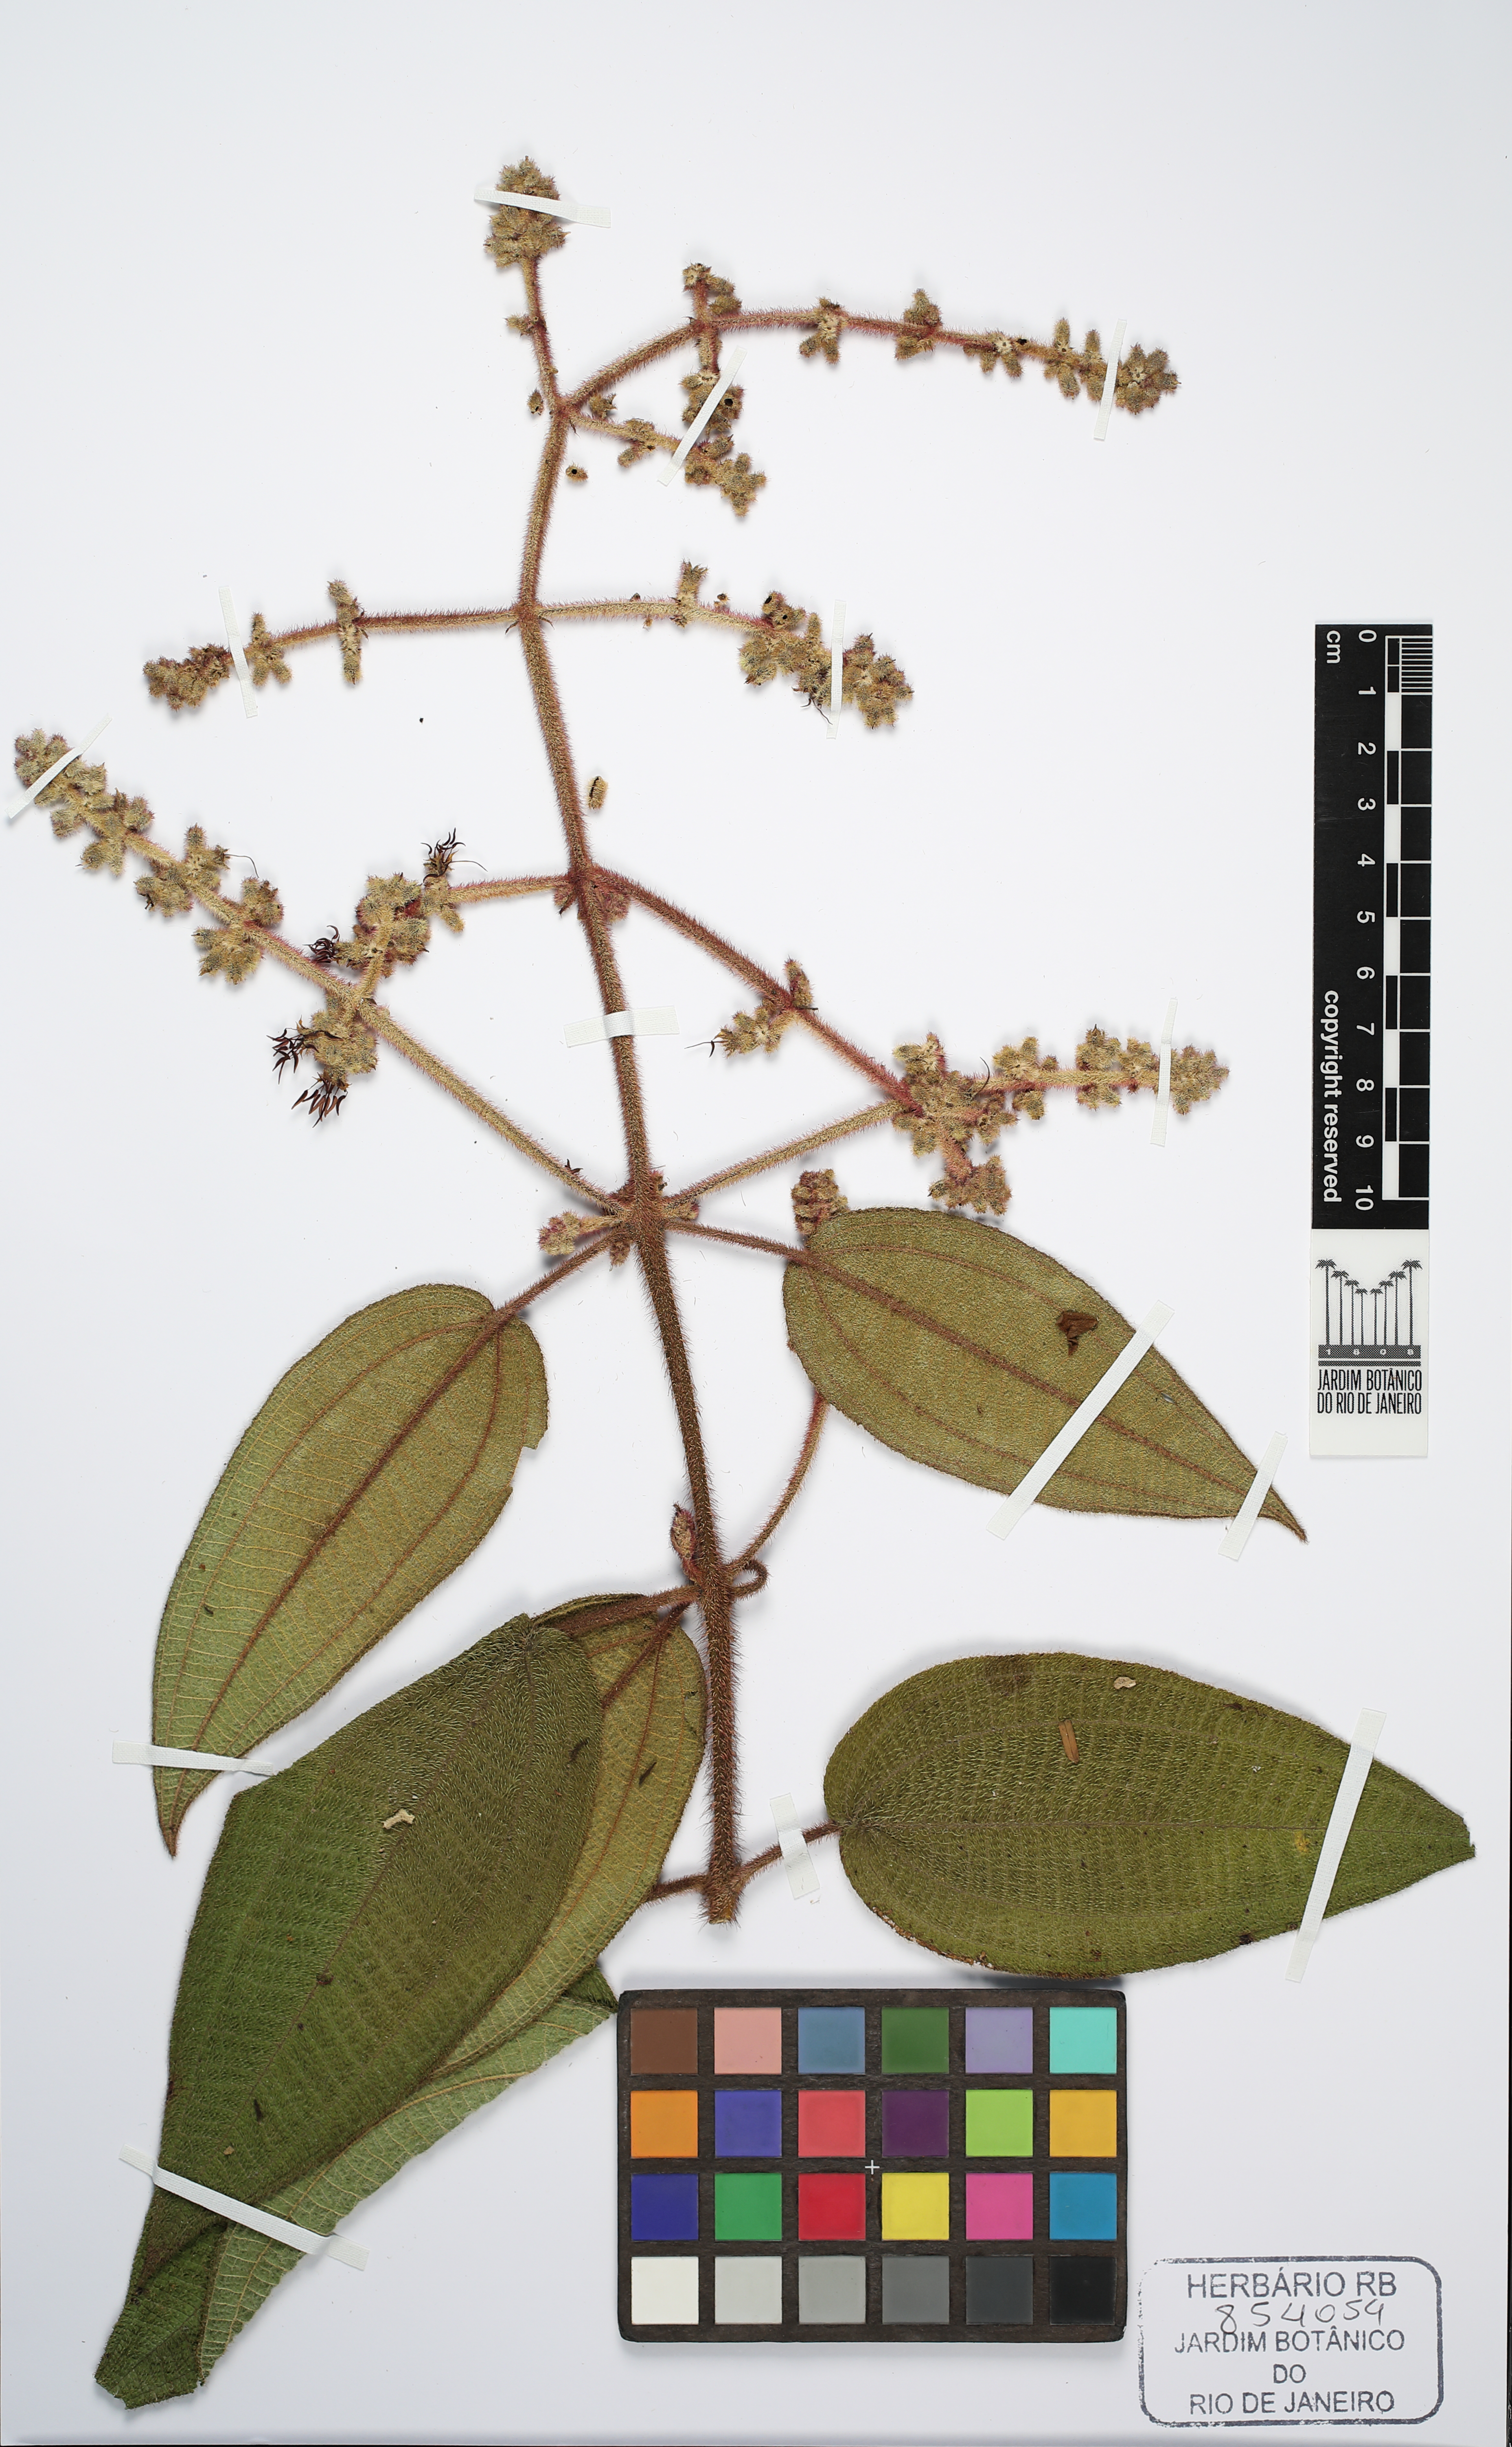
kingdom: Plantae
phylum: Tracheophyta
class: Magnoliopsida
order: Myrtales
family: Melastomataceae
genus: Miconia
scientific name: Miconia leafoveolata
